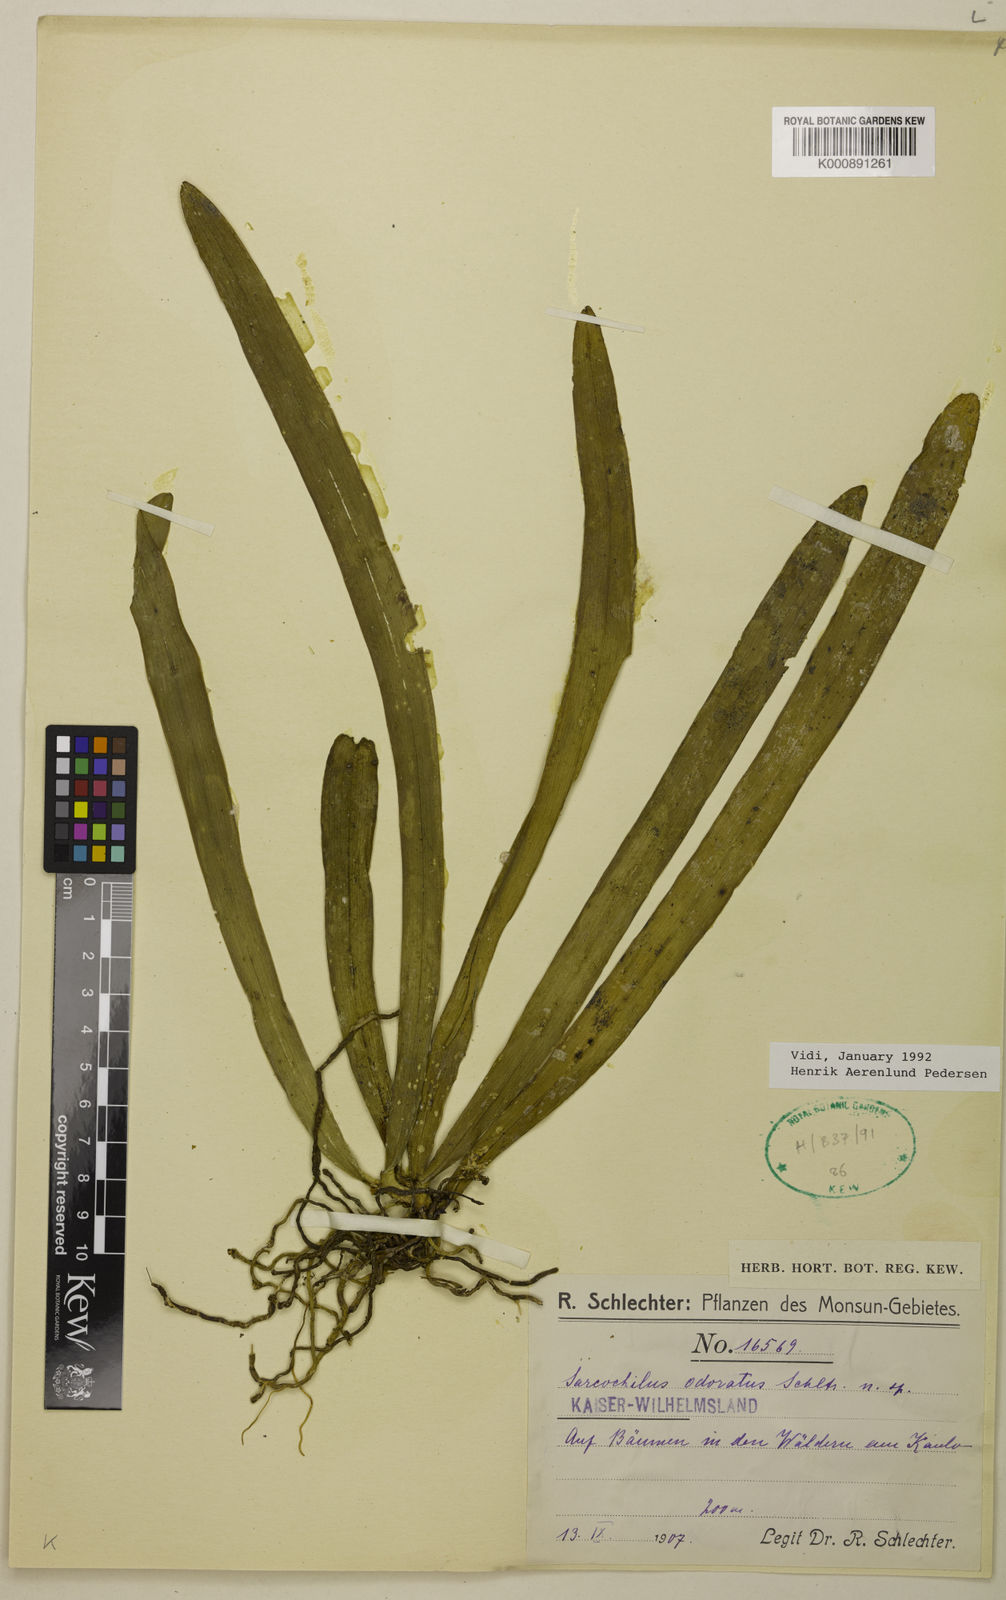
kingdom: Plantae
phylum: Tracheophyta
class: Liliopsida
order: Asparagales
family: Orchidaceae
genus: Sarcochilus
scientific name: Sarcochilus odoratus
